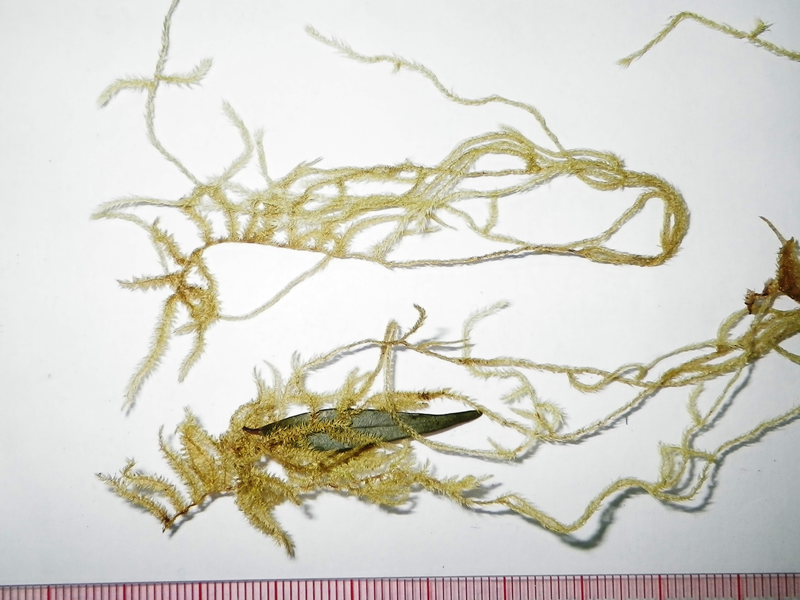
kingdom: Plantae
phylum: Bryophyta
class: Bryopsida
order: Hypnales
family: Meteoriaceae
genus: Aerobryidium
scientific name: Aerobryidium laosiense
